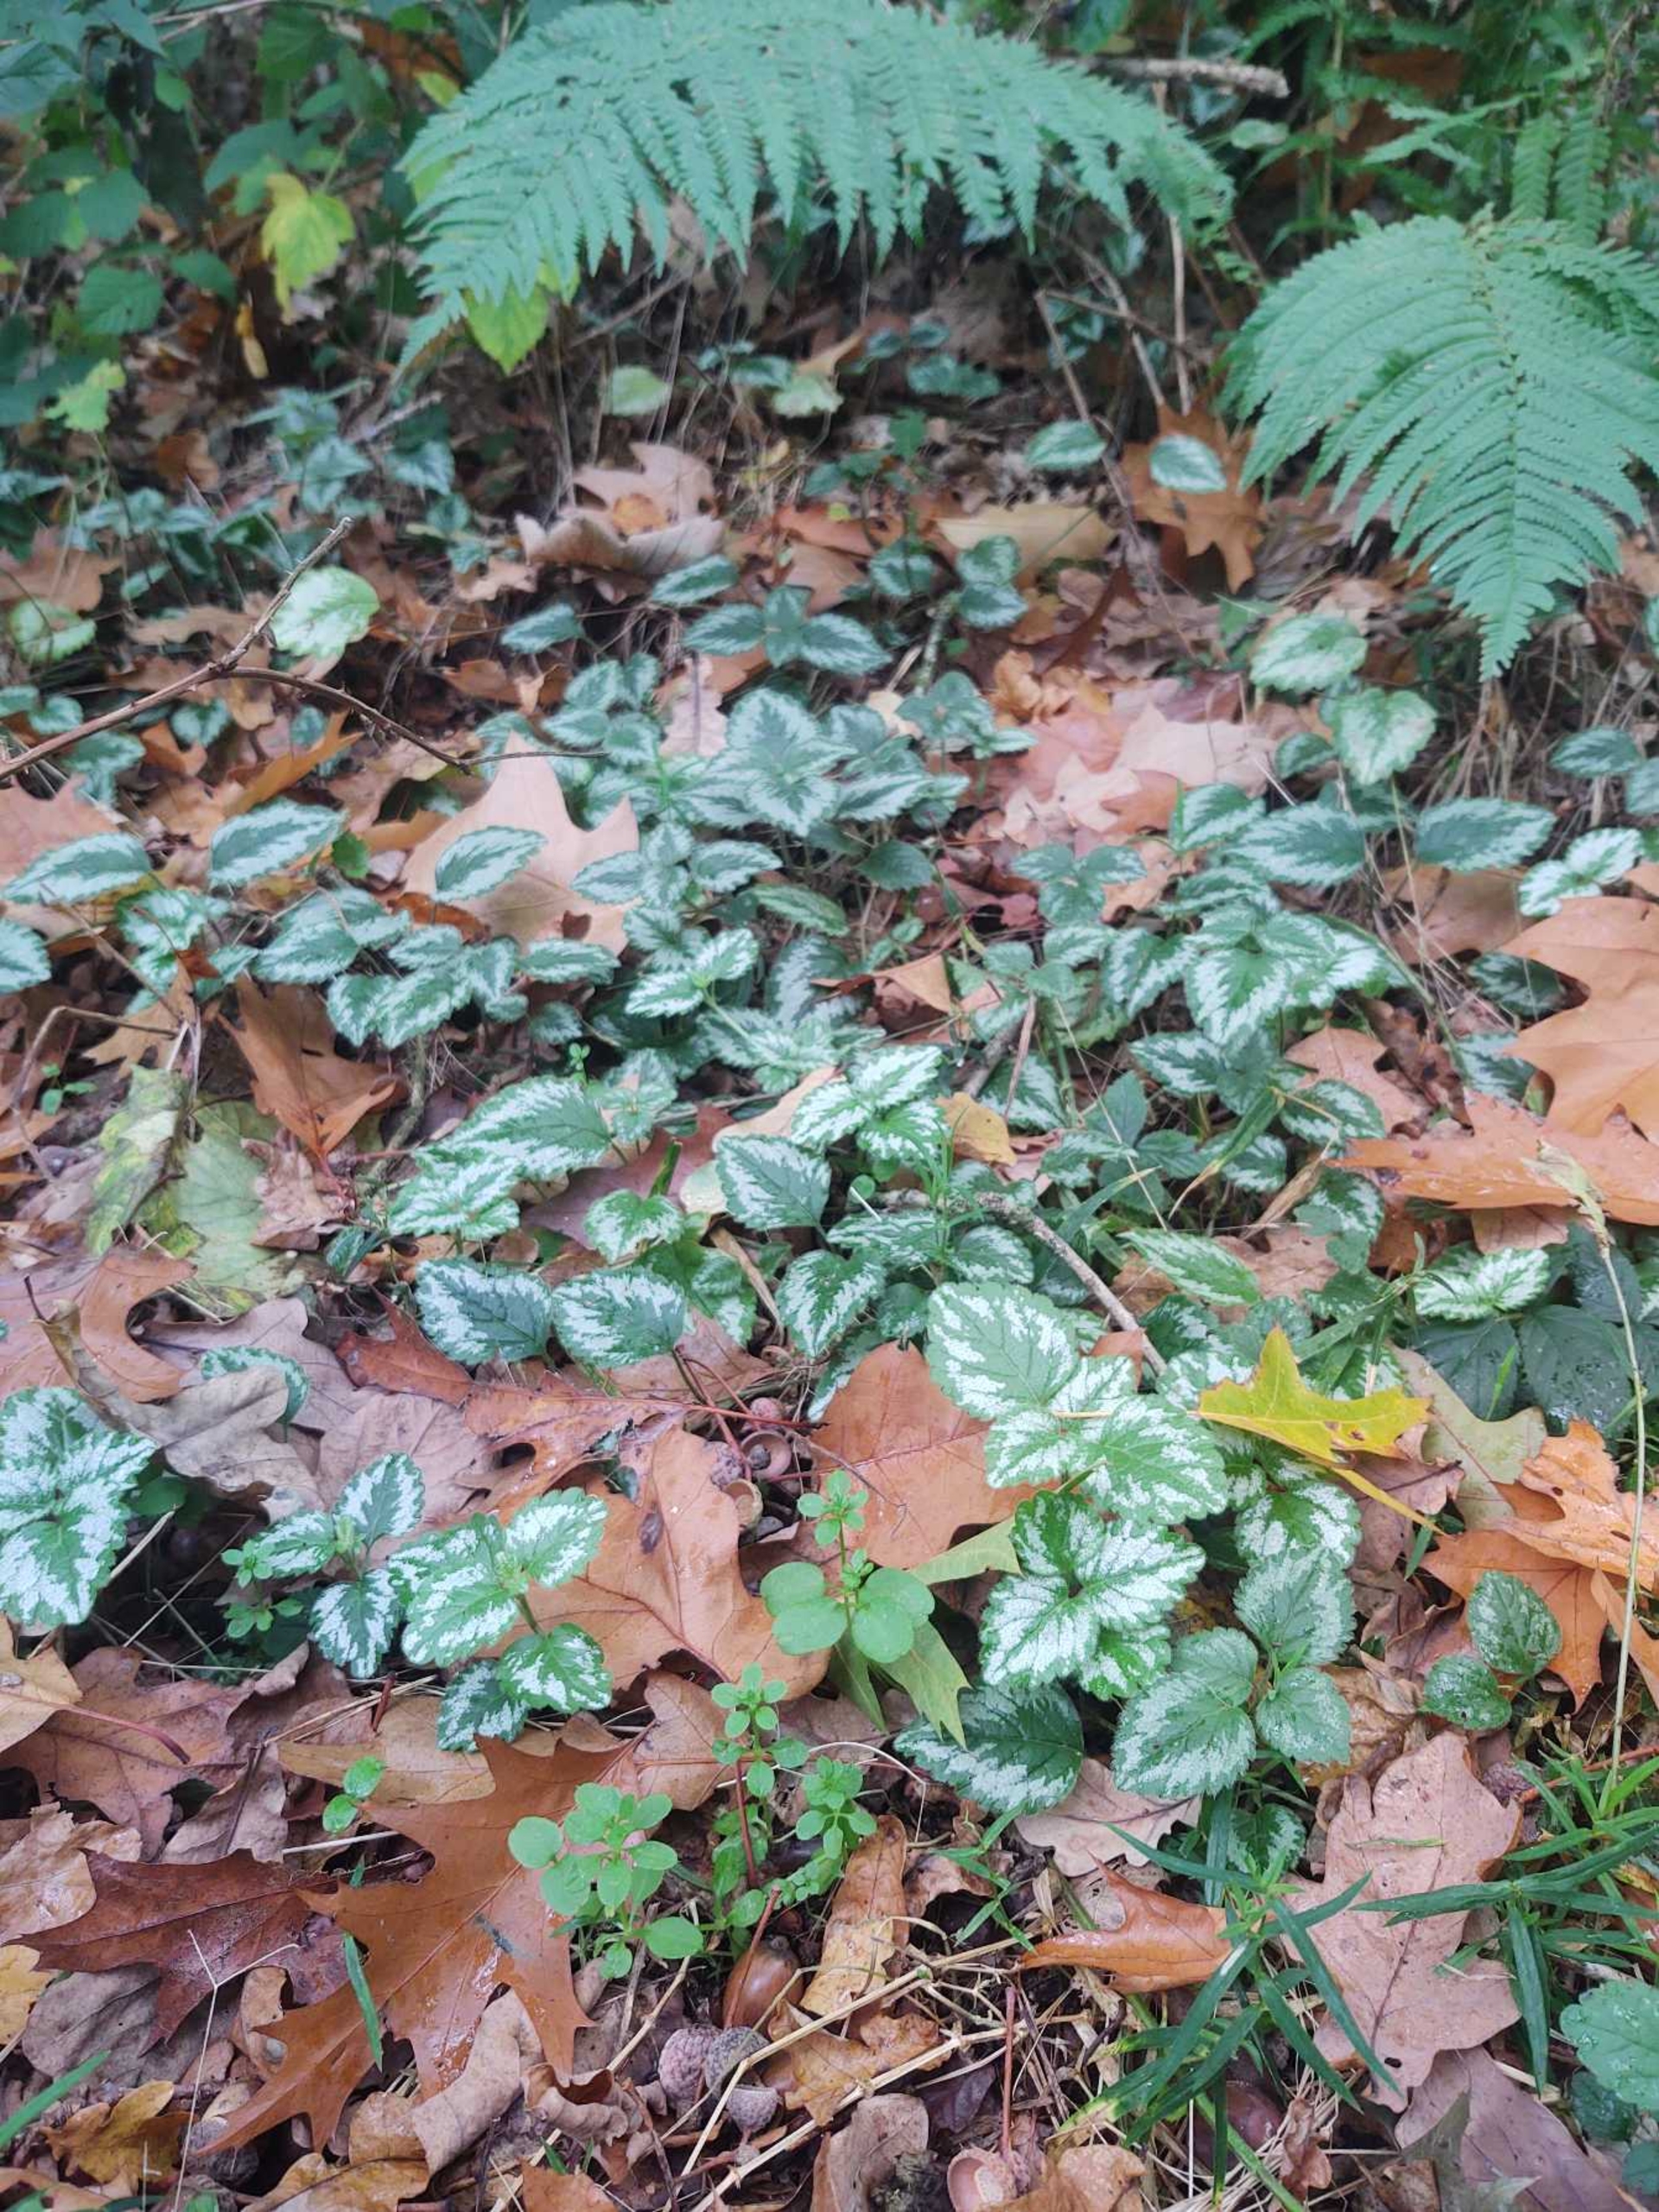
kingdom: Plantae
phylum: Tracheophyta
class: Magnoliopsida
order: Lamiales
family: Lamiaceae
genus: Lamium
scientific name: Lamium galeobdolon
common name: Have-guldnælde
